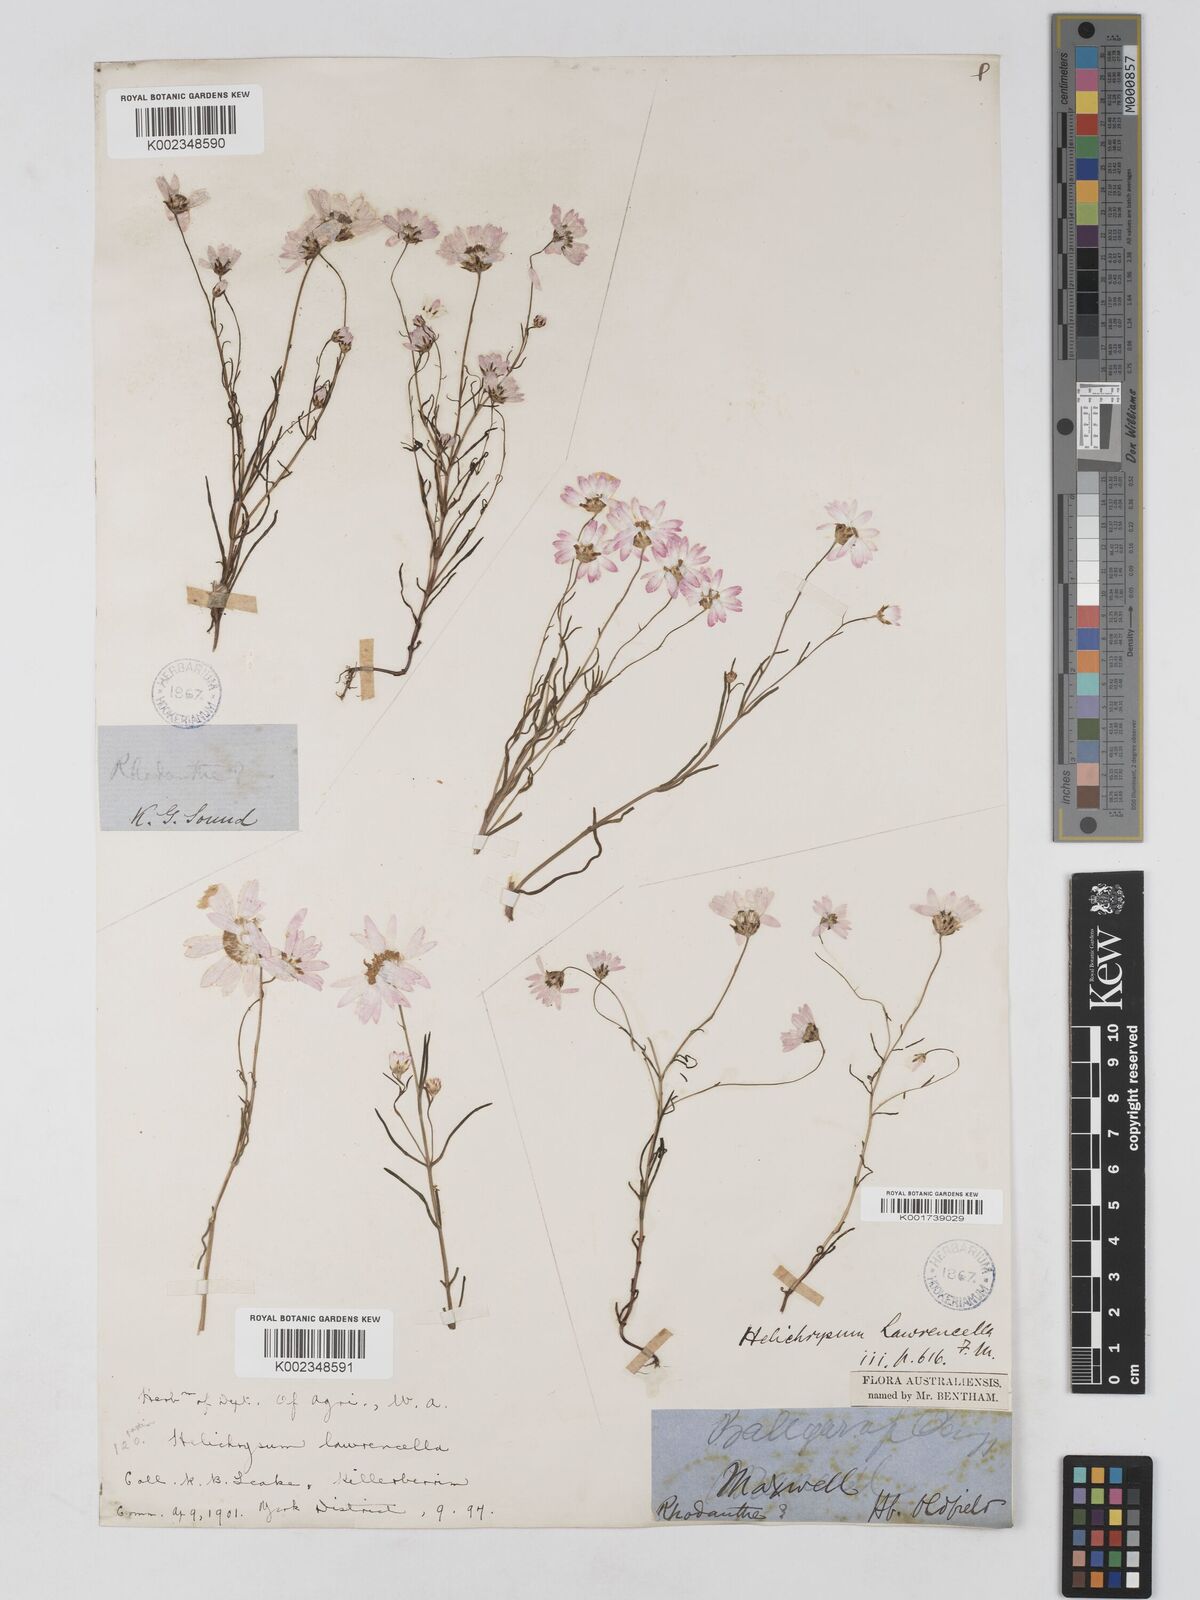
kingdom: Plantae
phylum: Tracheophyta
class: Magnoliopsida
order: Asterales
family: Asteraceae
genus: Lawrencella
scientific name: Lawrencella rosea
